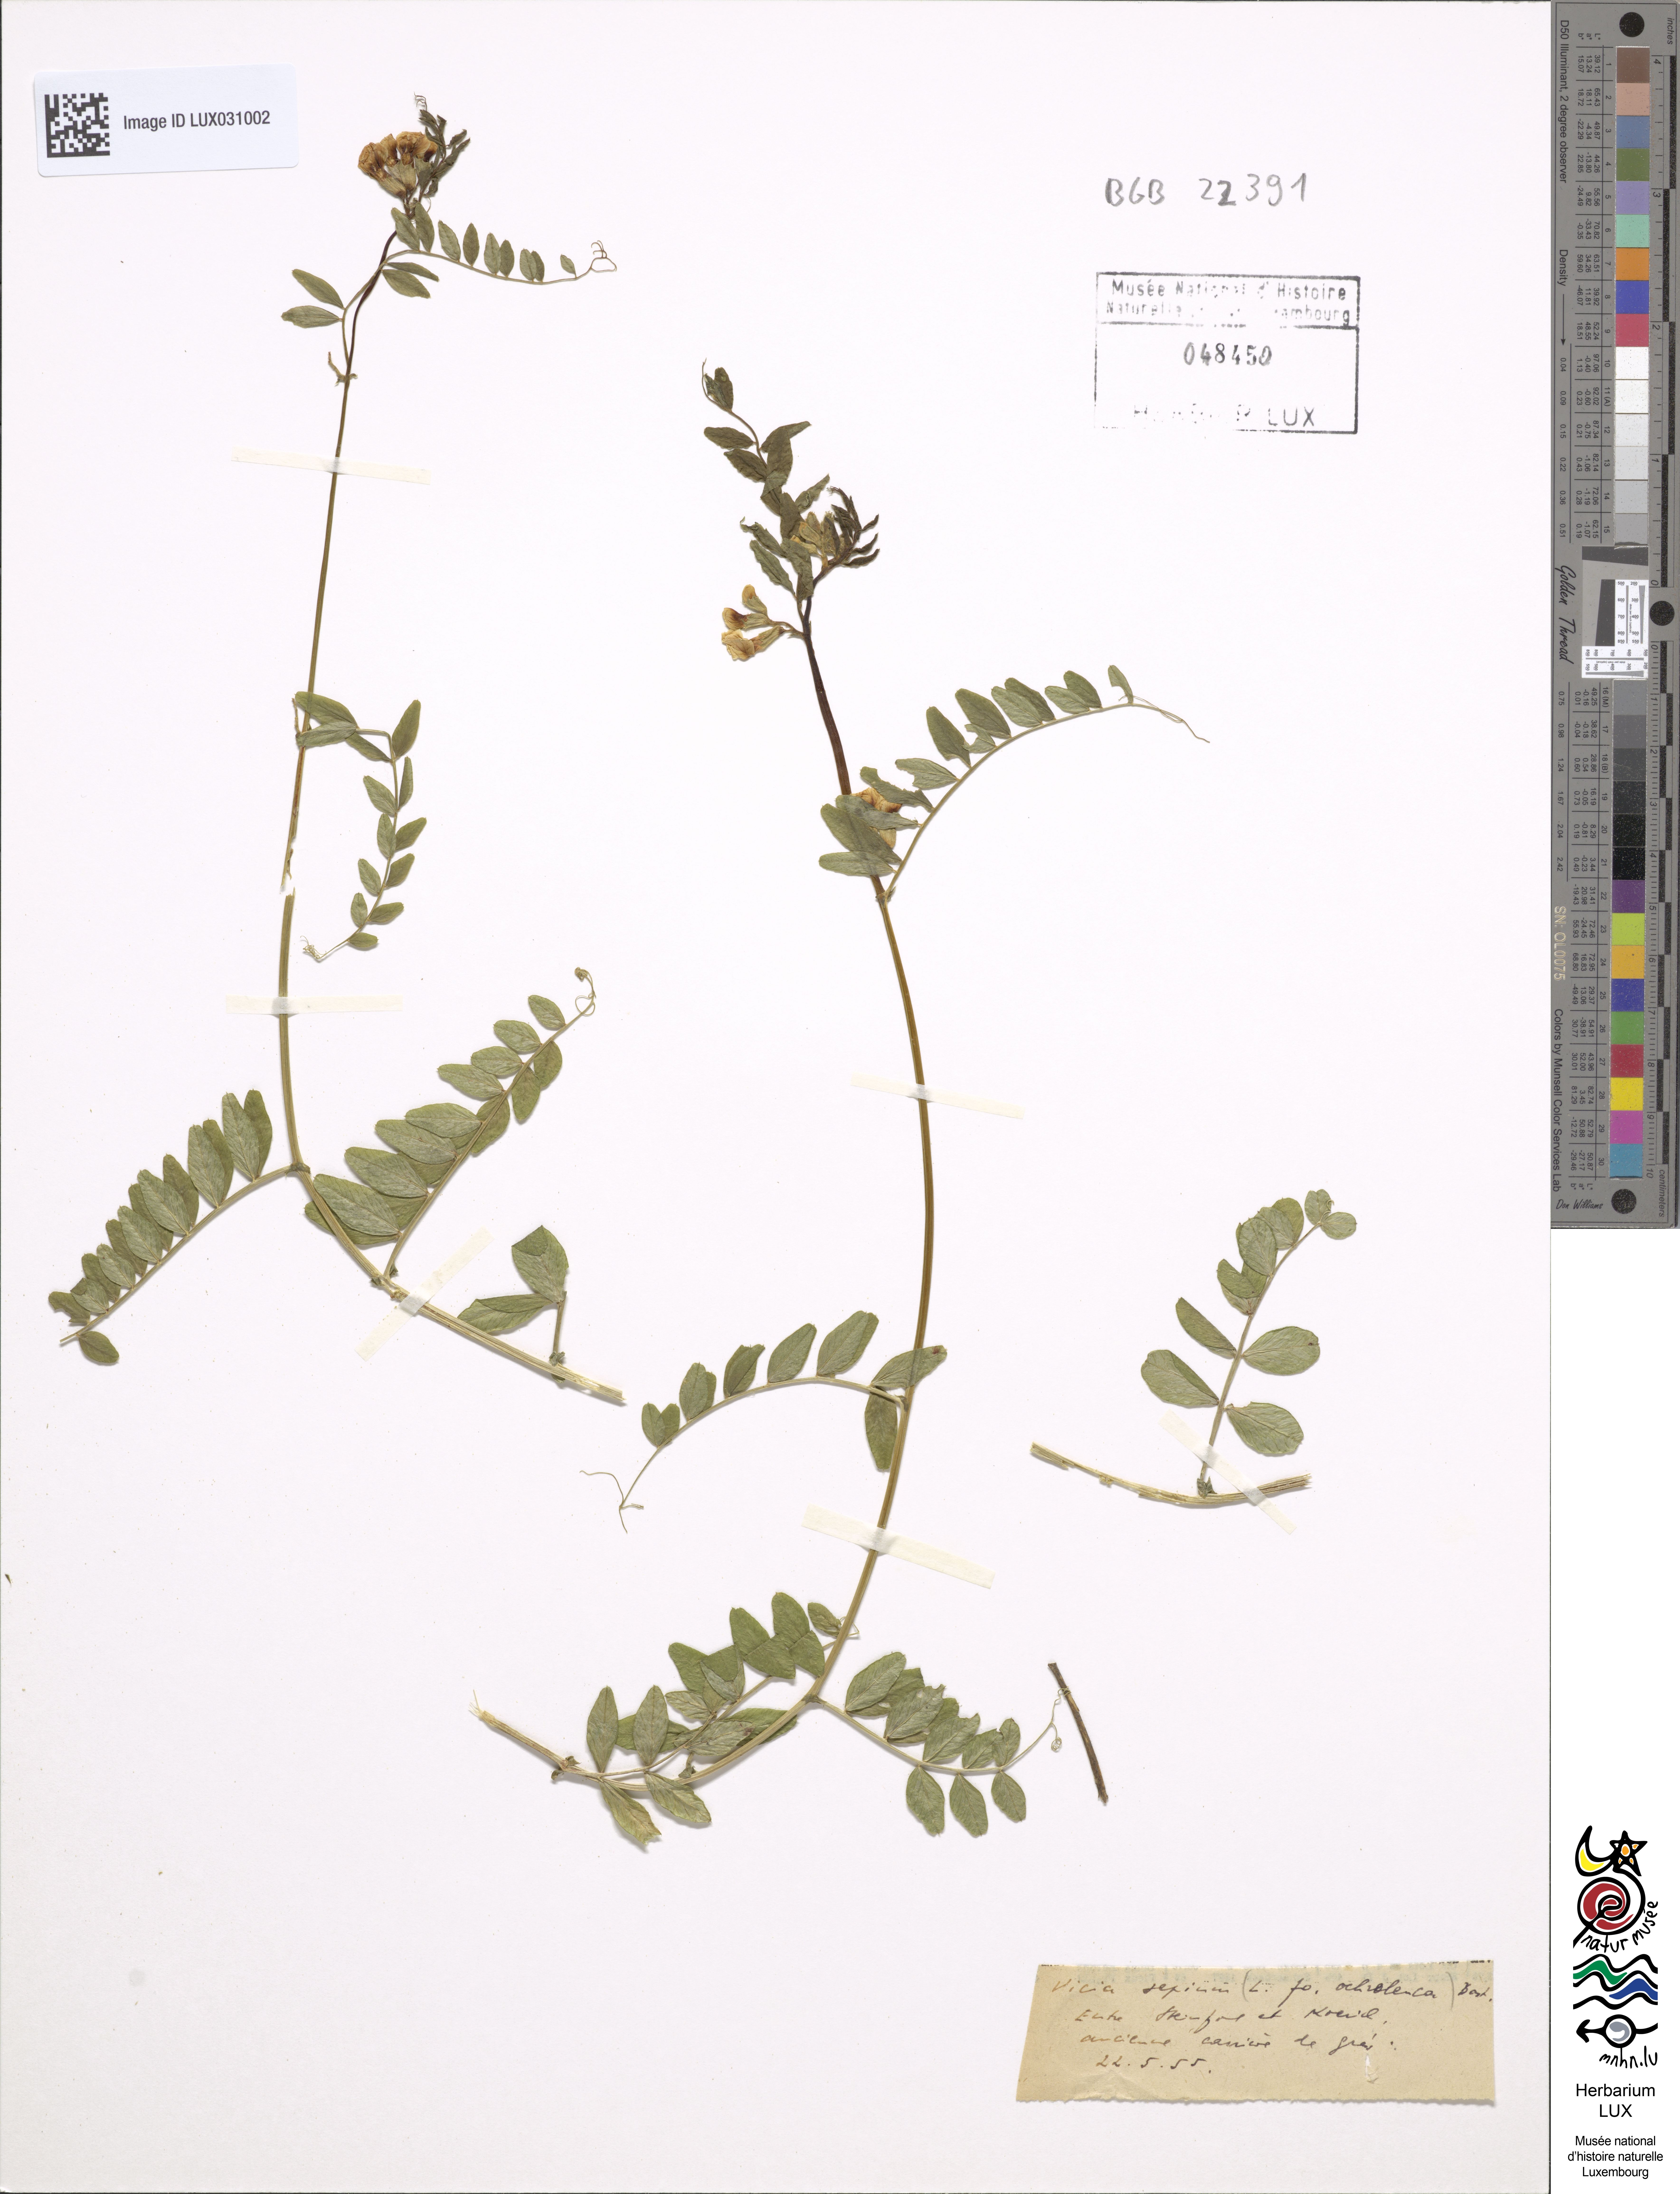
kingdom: Plantae
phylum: Tracheophyta
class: Magnoliopsida
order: Fabales
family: Fabaceae
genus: Vicia
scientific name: Vicia sepium
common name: Bush vetch
